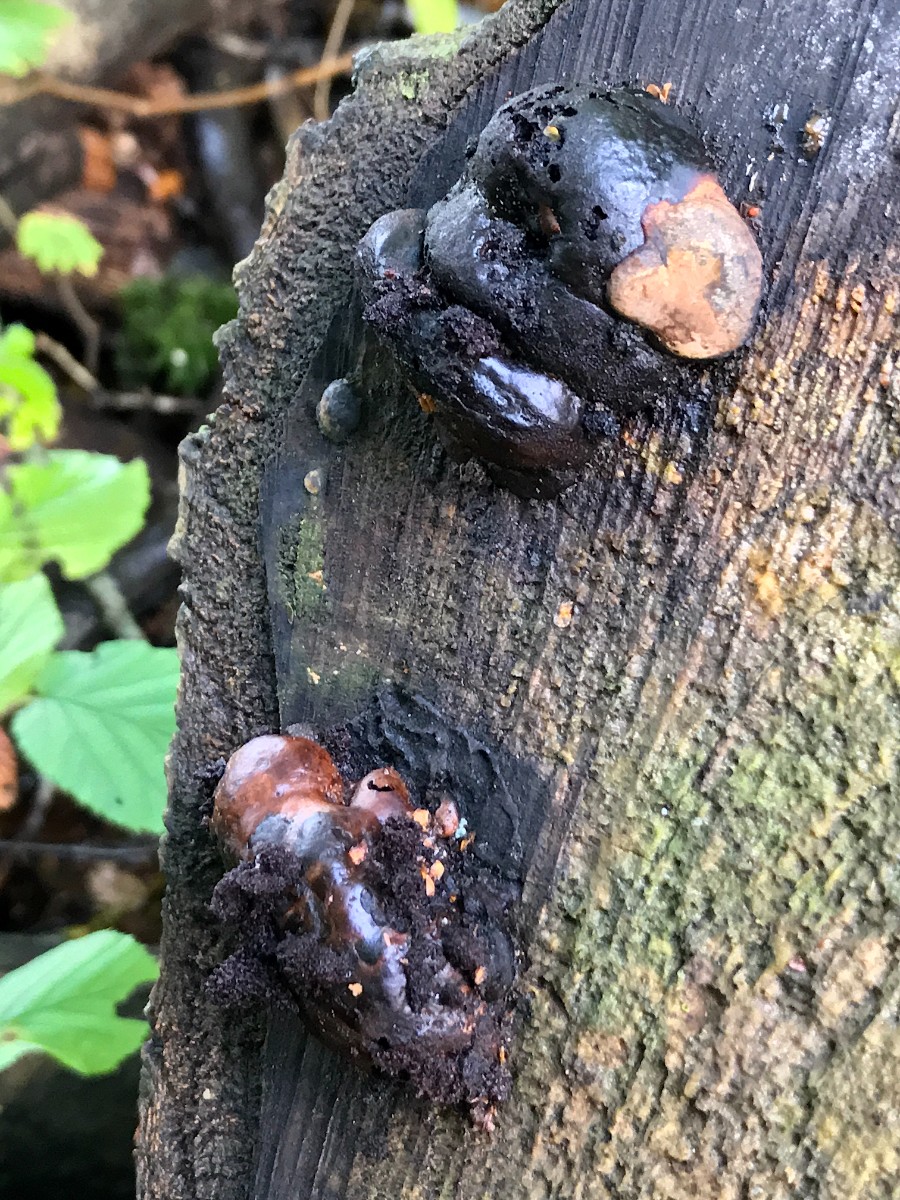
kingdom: Fungi
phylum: Basidiomycota
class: Agaricomycetes
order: Hymenochaetales
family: Hymenochaetaceae
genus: Phellinus
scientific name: Phellinus populicola
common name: poppel-ildporesvamp
